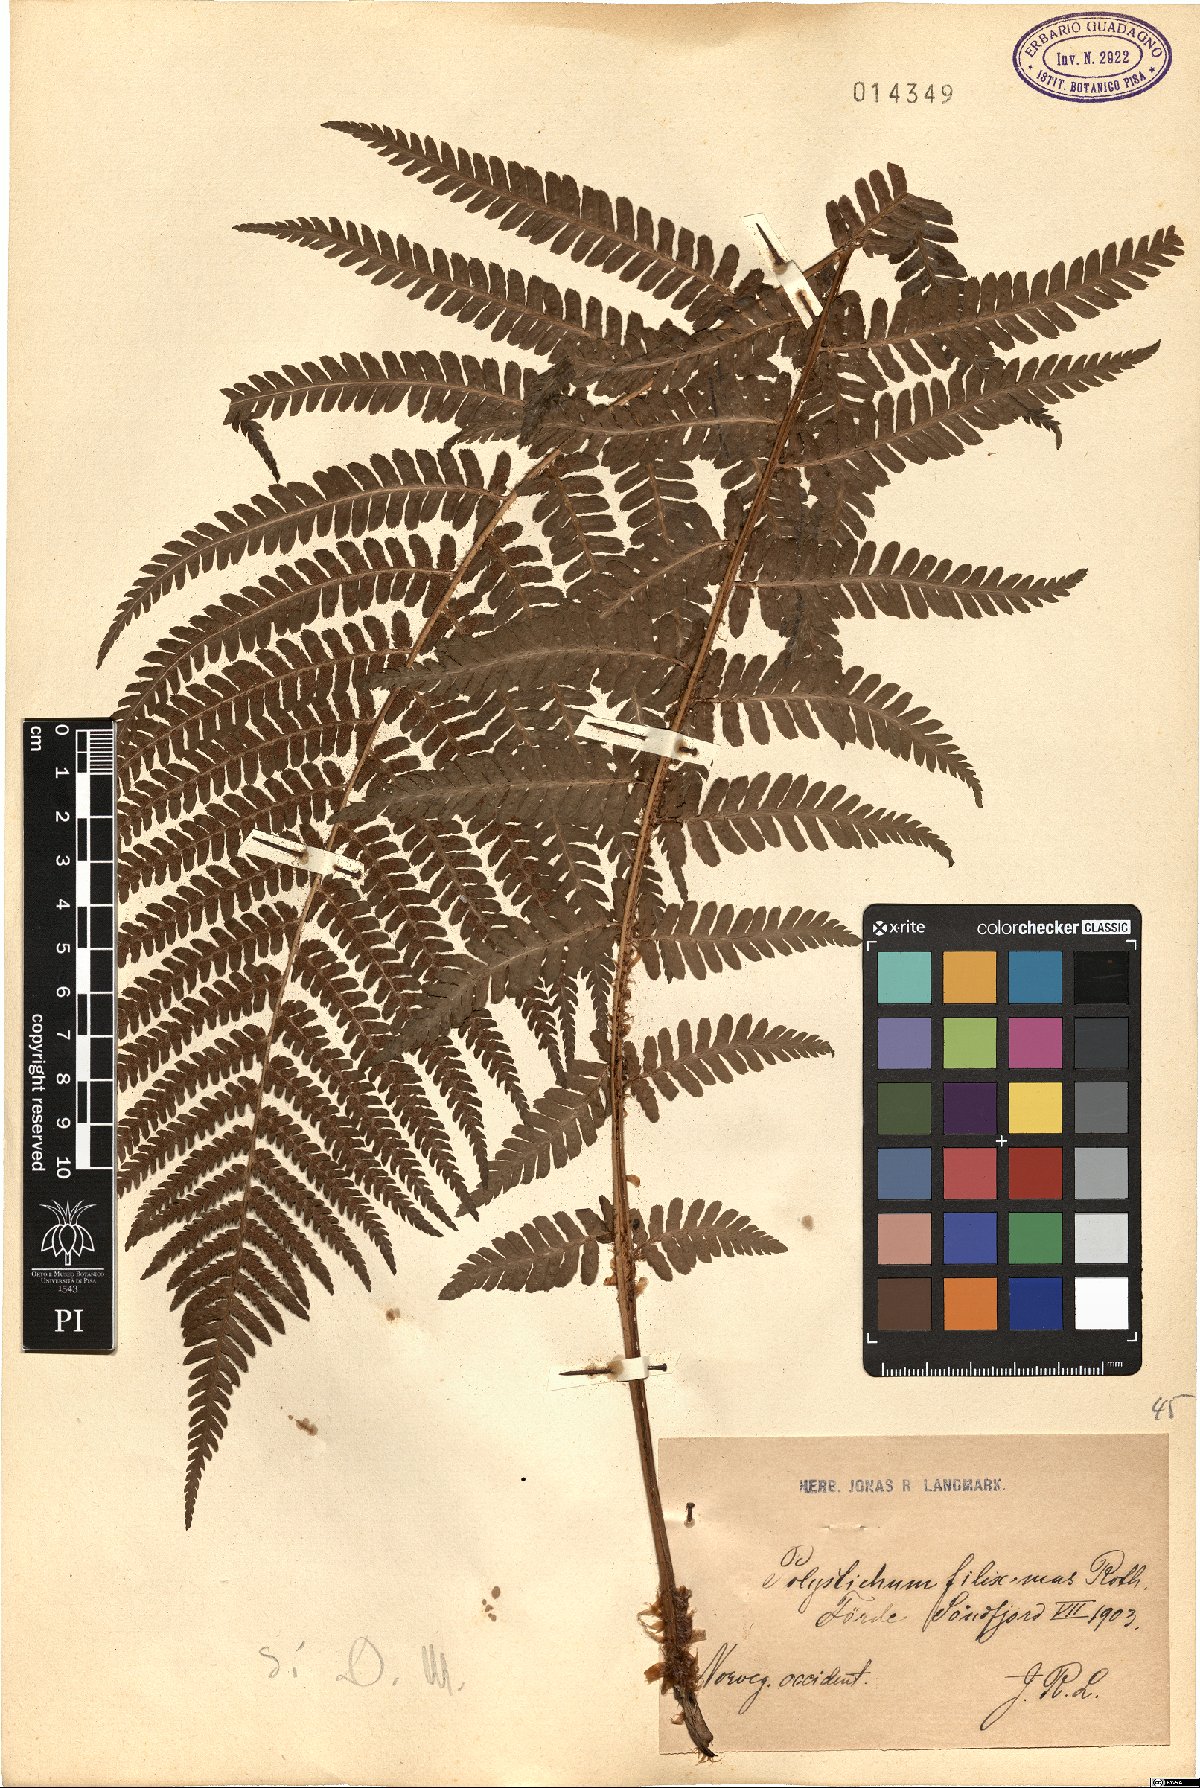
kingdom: Plantae
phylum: Tracheophyta
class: Polypodiopsida
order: Polypodiales
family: Dryopteridaceae
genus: Dryopteris
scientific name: Dryopteris filix-mas
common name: Male fern
